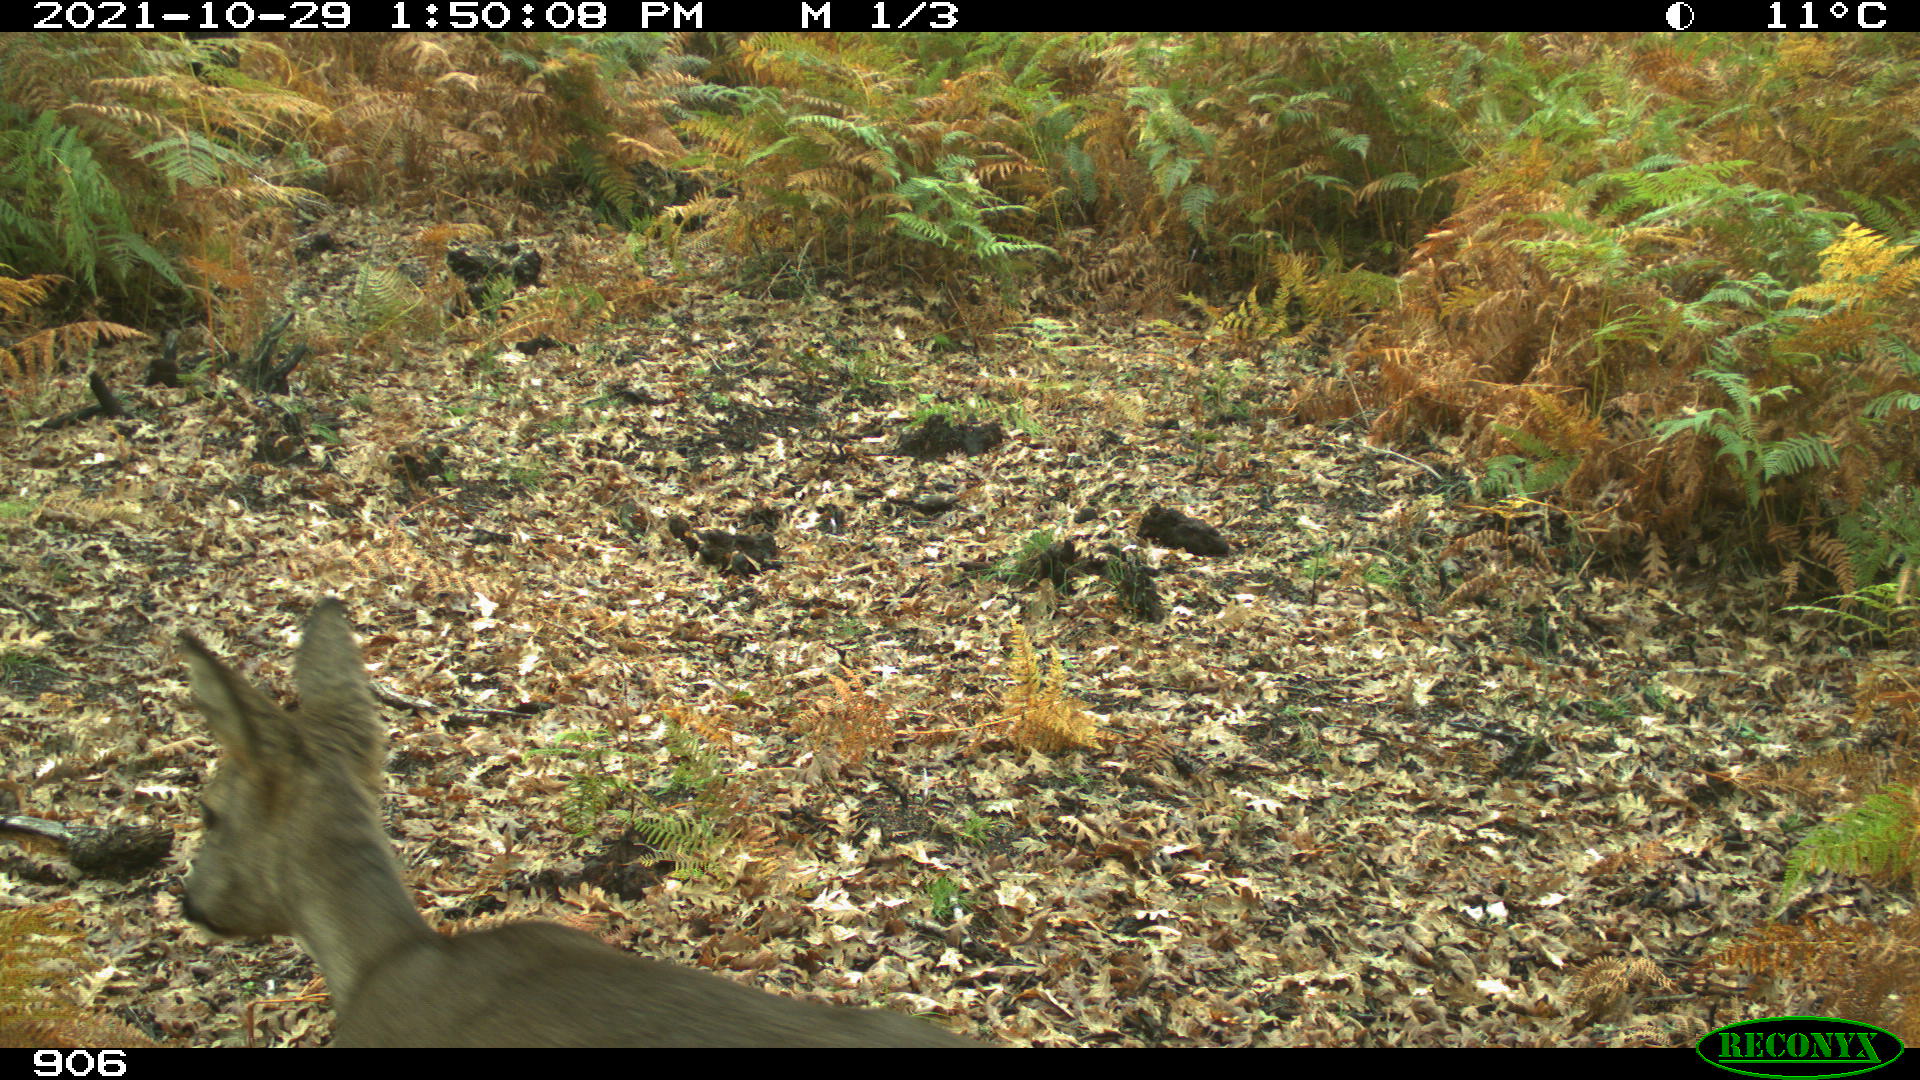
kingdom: Animalia
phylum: Chordata
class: Mammalia
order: Artiodactyla
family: Cervidae
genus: Capreolus
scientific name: Capreolus capreolus
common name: Western roe deer
